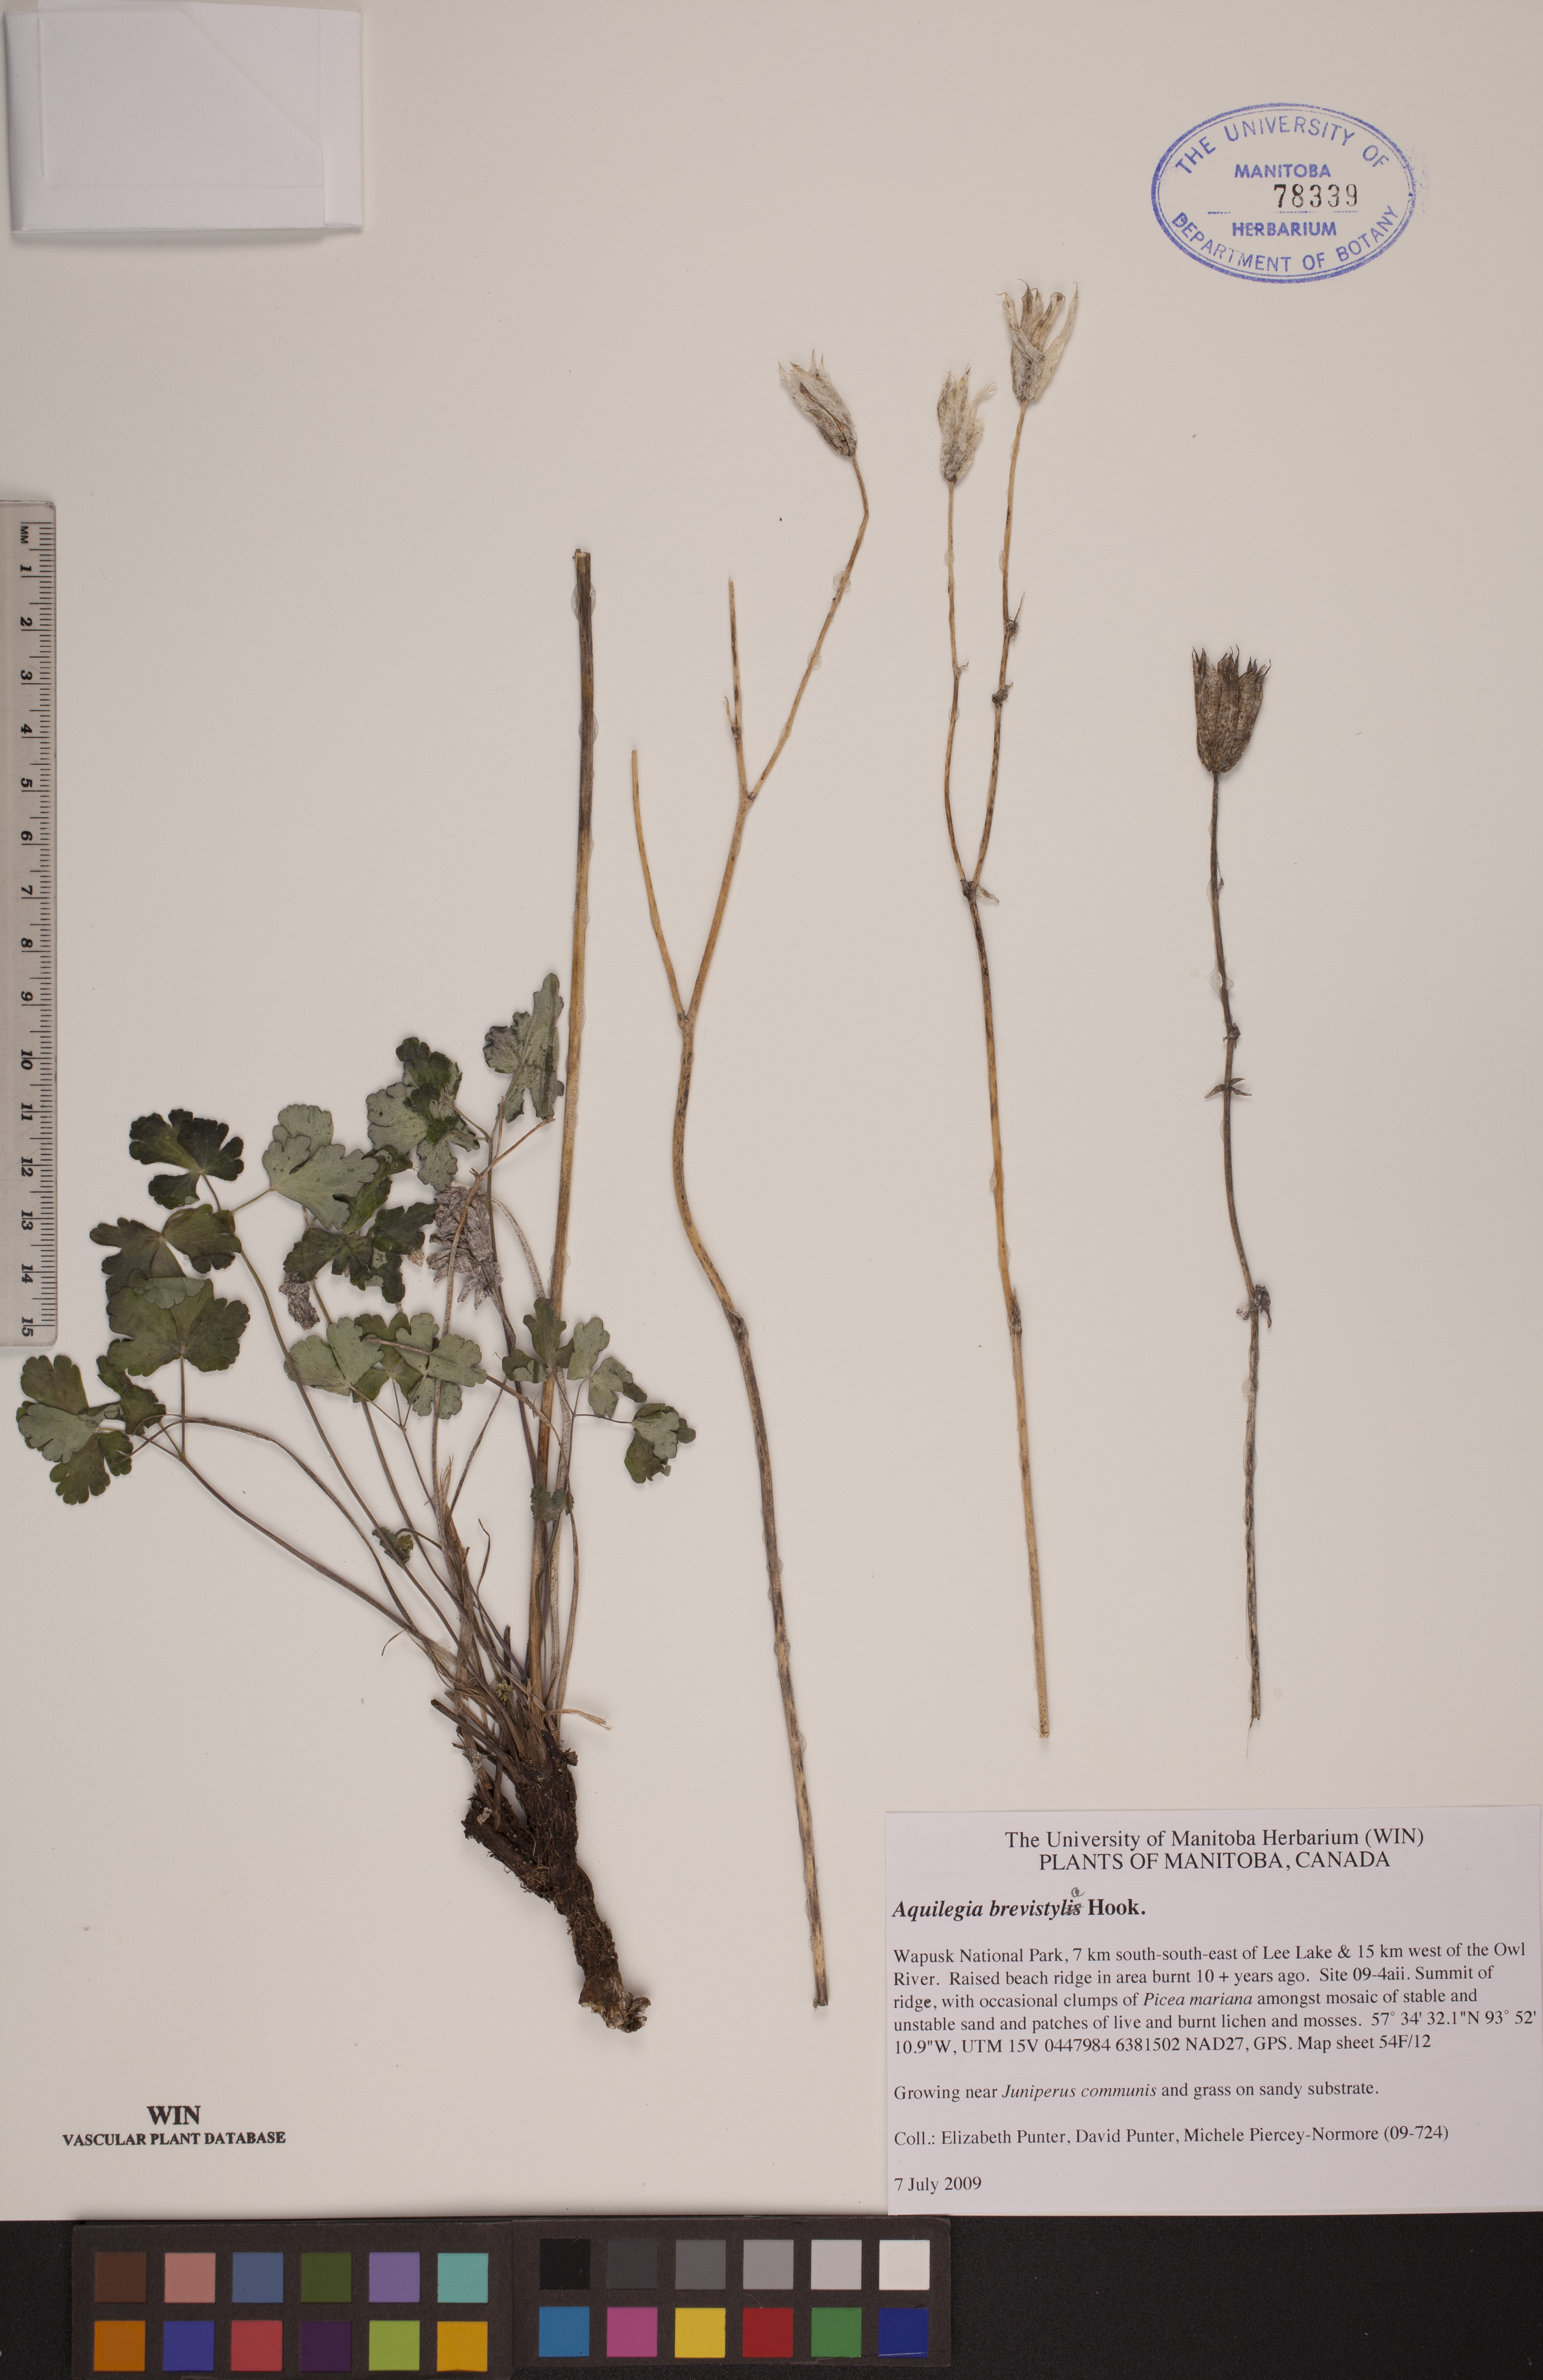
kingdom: Plantae
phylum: Tracheophyta
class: Magnoliopsida
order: Ranunculales
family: Ranunculaceae
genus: Aquilegia
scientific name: Aquilegia brevistyla
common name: Yukon columbine
